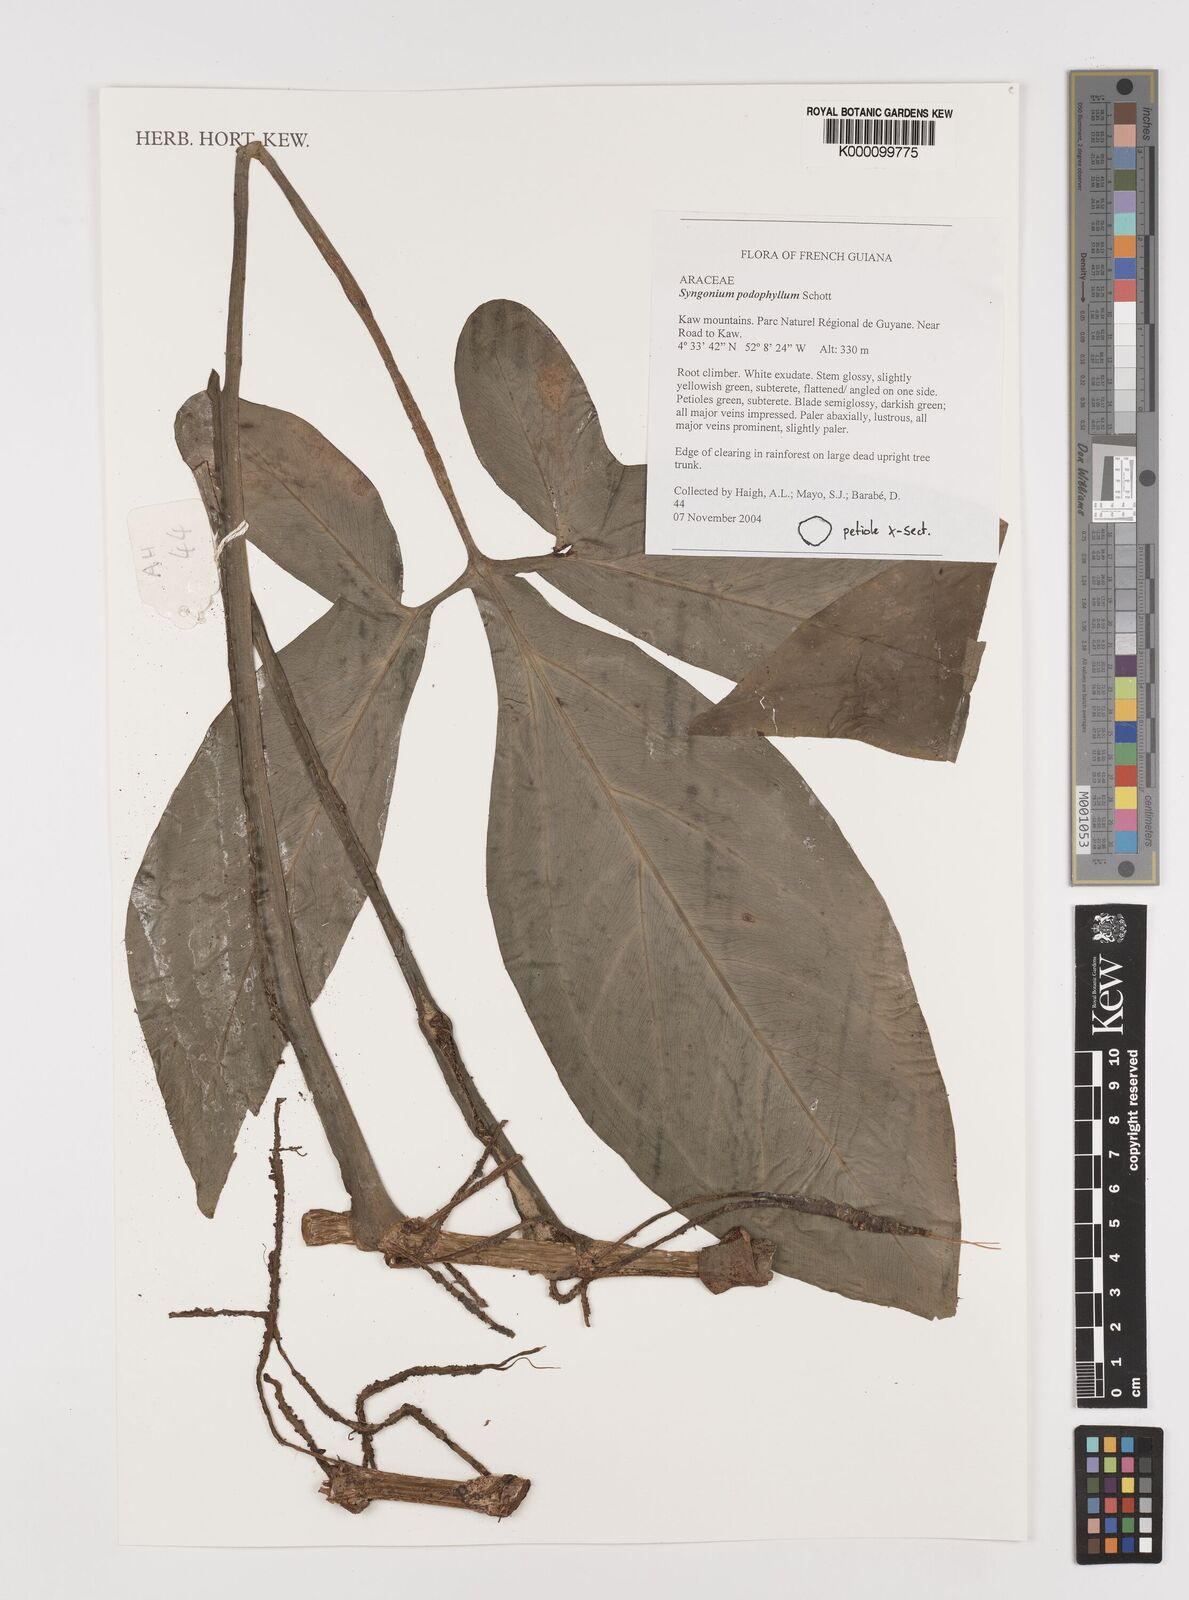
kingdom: Plantae
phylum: Tracheophyta
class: Liliopsida
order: Alismatales
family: Araceae
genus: Syngonium
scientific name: Syngonium podophyllum
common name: American evergreen
